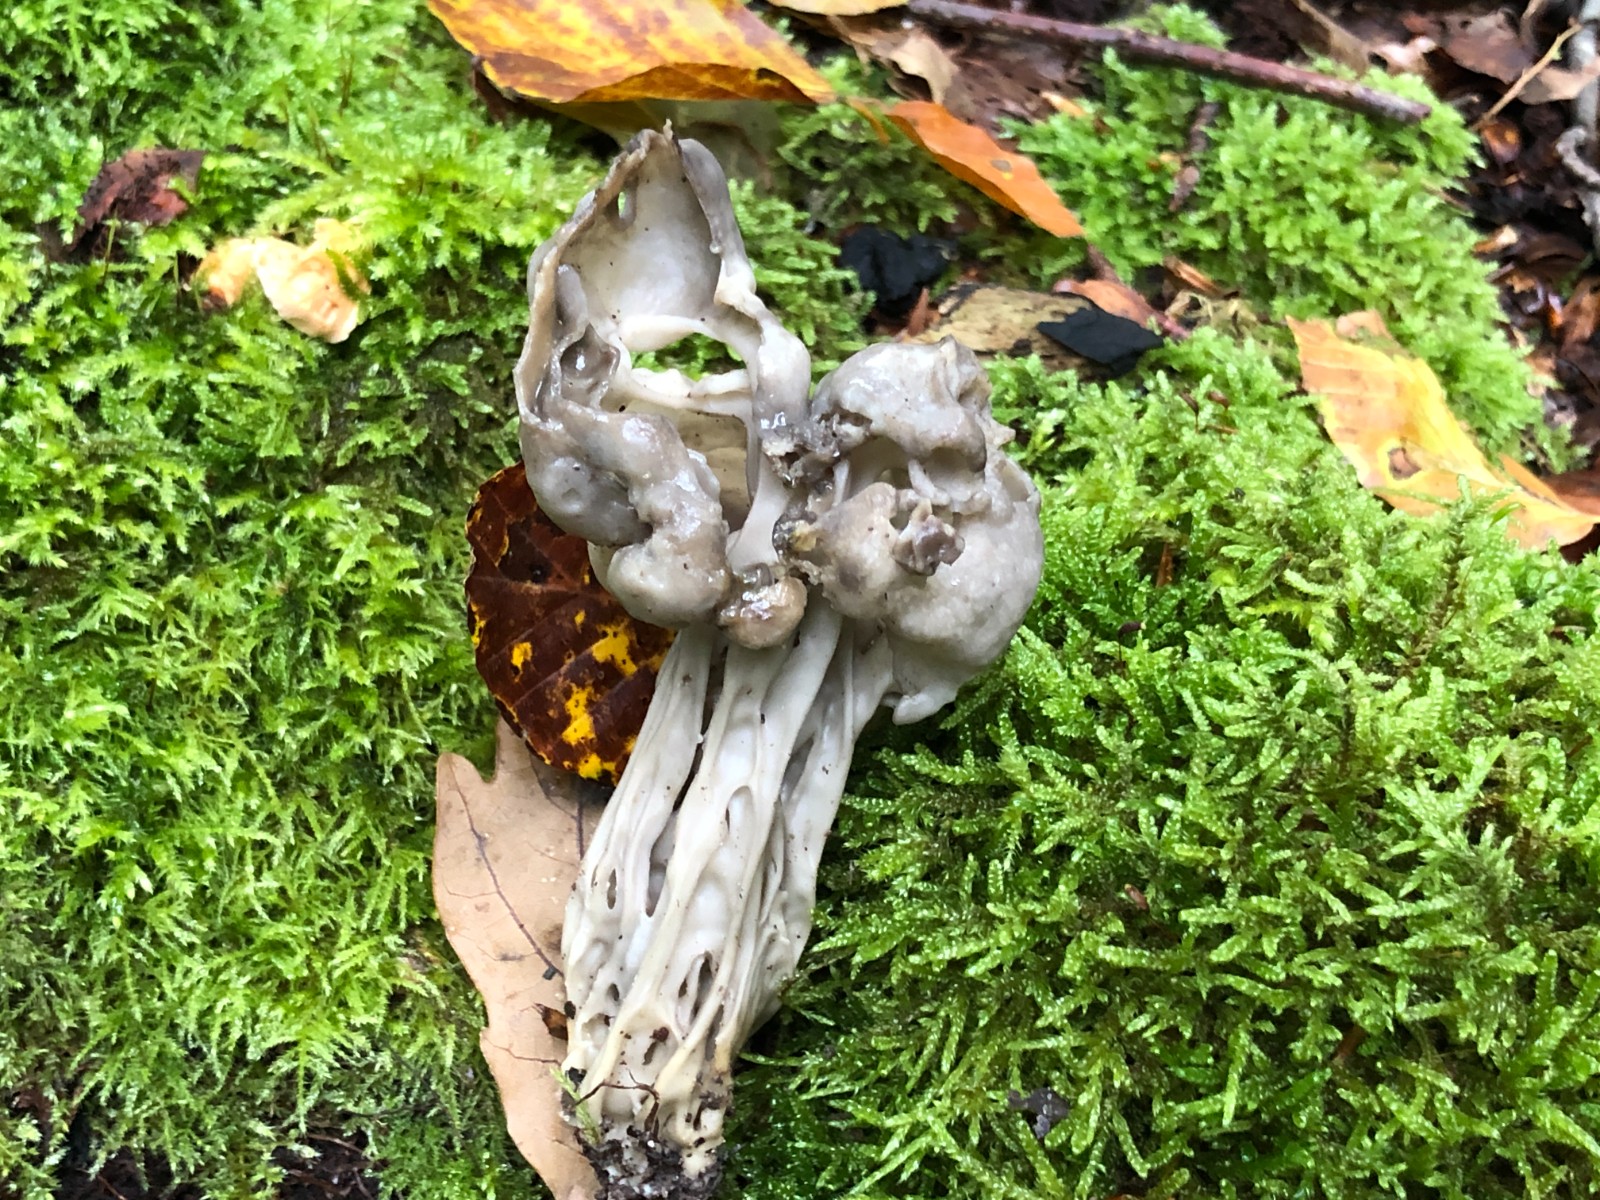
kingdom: Fungi
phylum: Ascomycota
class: Pezizomycetes
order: Pezizales
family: Helvellaceae
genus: Helvella
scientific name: Helvella lacunosa
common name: grubet foldhat
